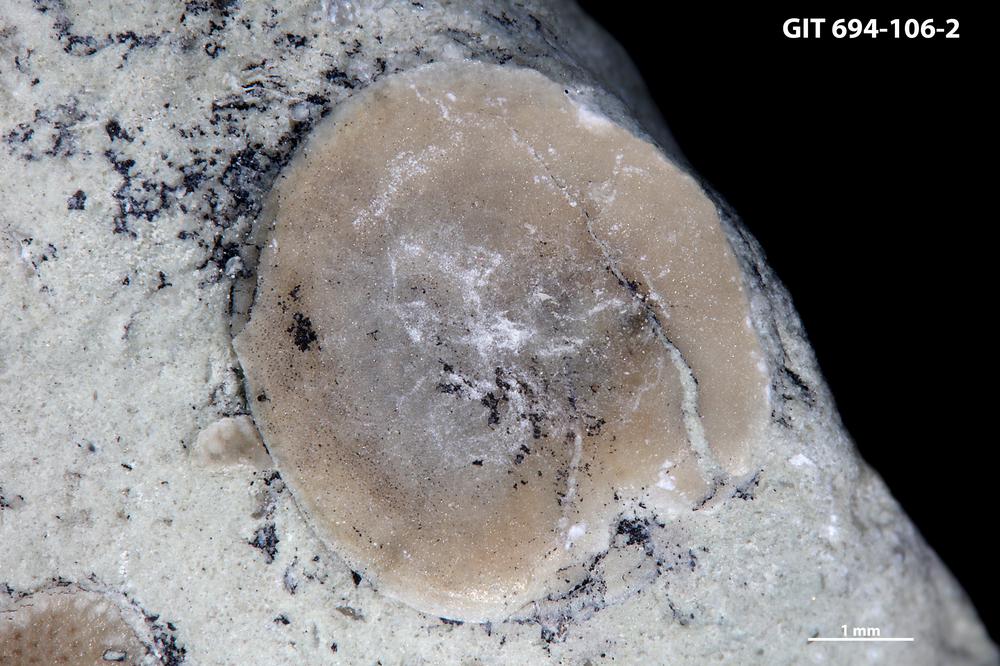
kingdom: Animalia
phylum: Brachiopoda
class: Craniata
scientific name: Craniata
